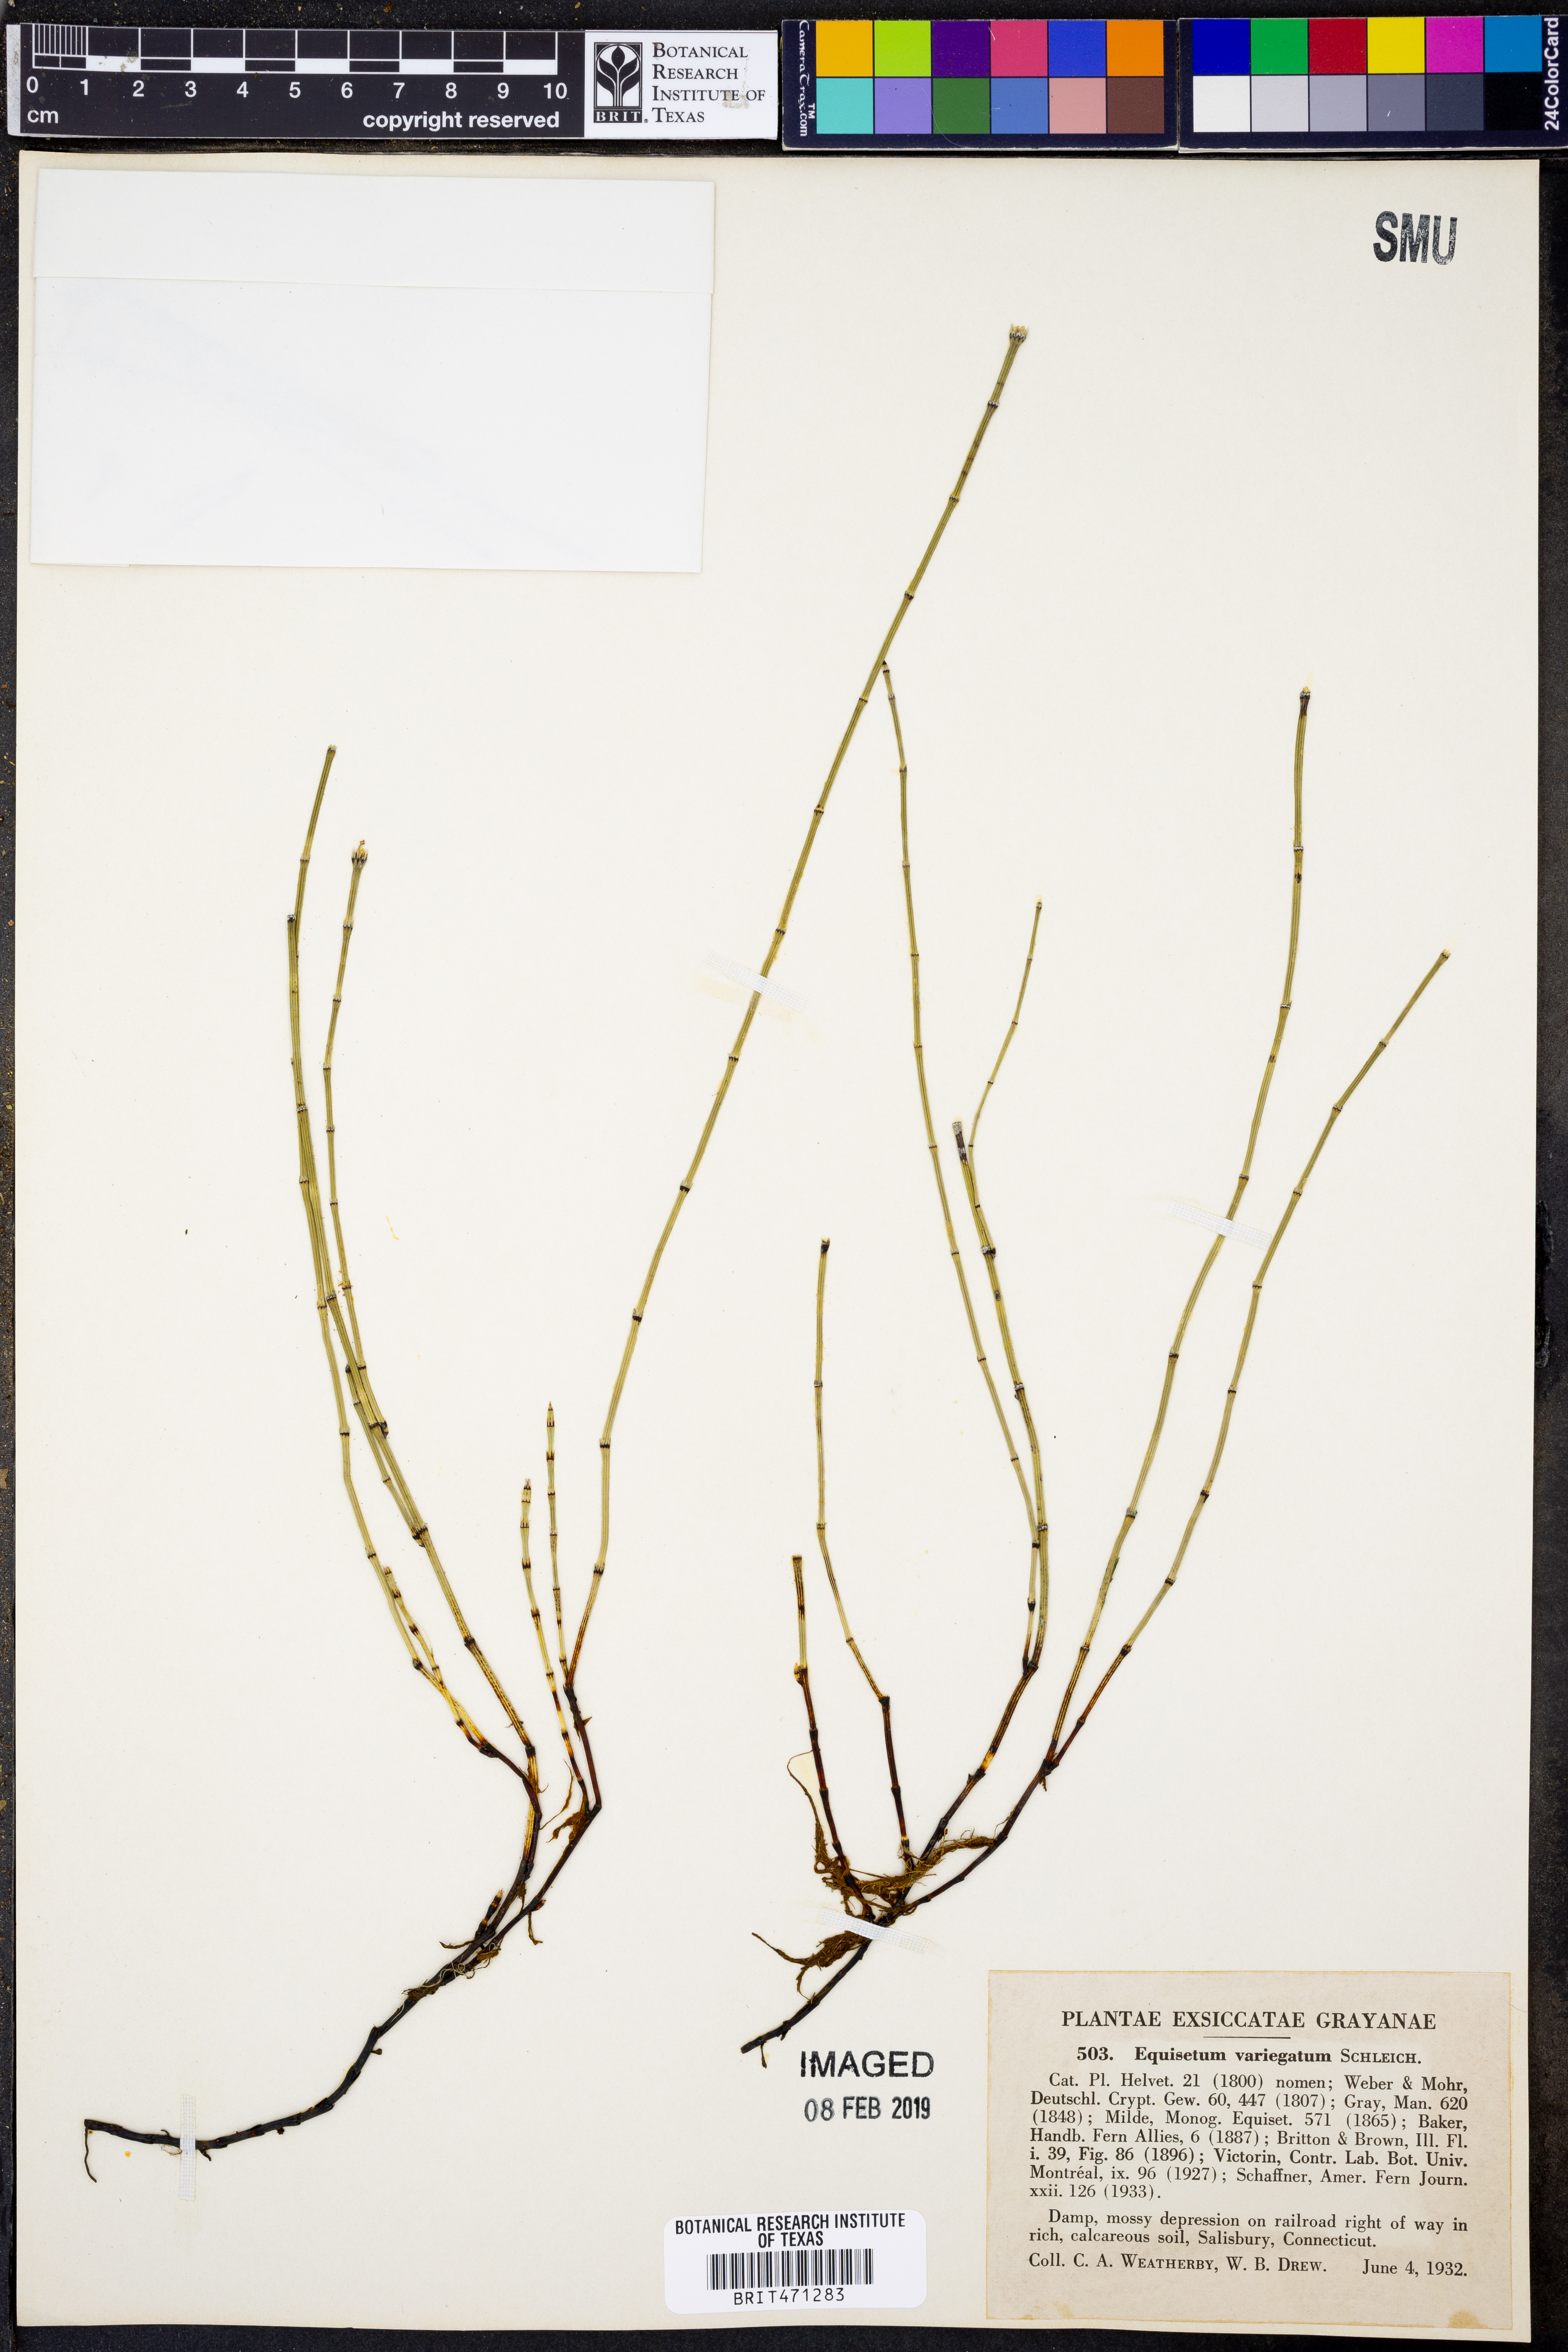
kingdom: Plantae
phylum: Tracheophyta
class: Polypodiopsida
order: Equisetales
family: Equisetaceae
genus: Equisetum
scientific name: Equisetum variegatum
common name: Variegated horsetail
